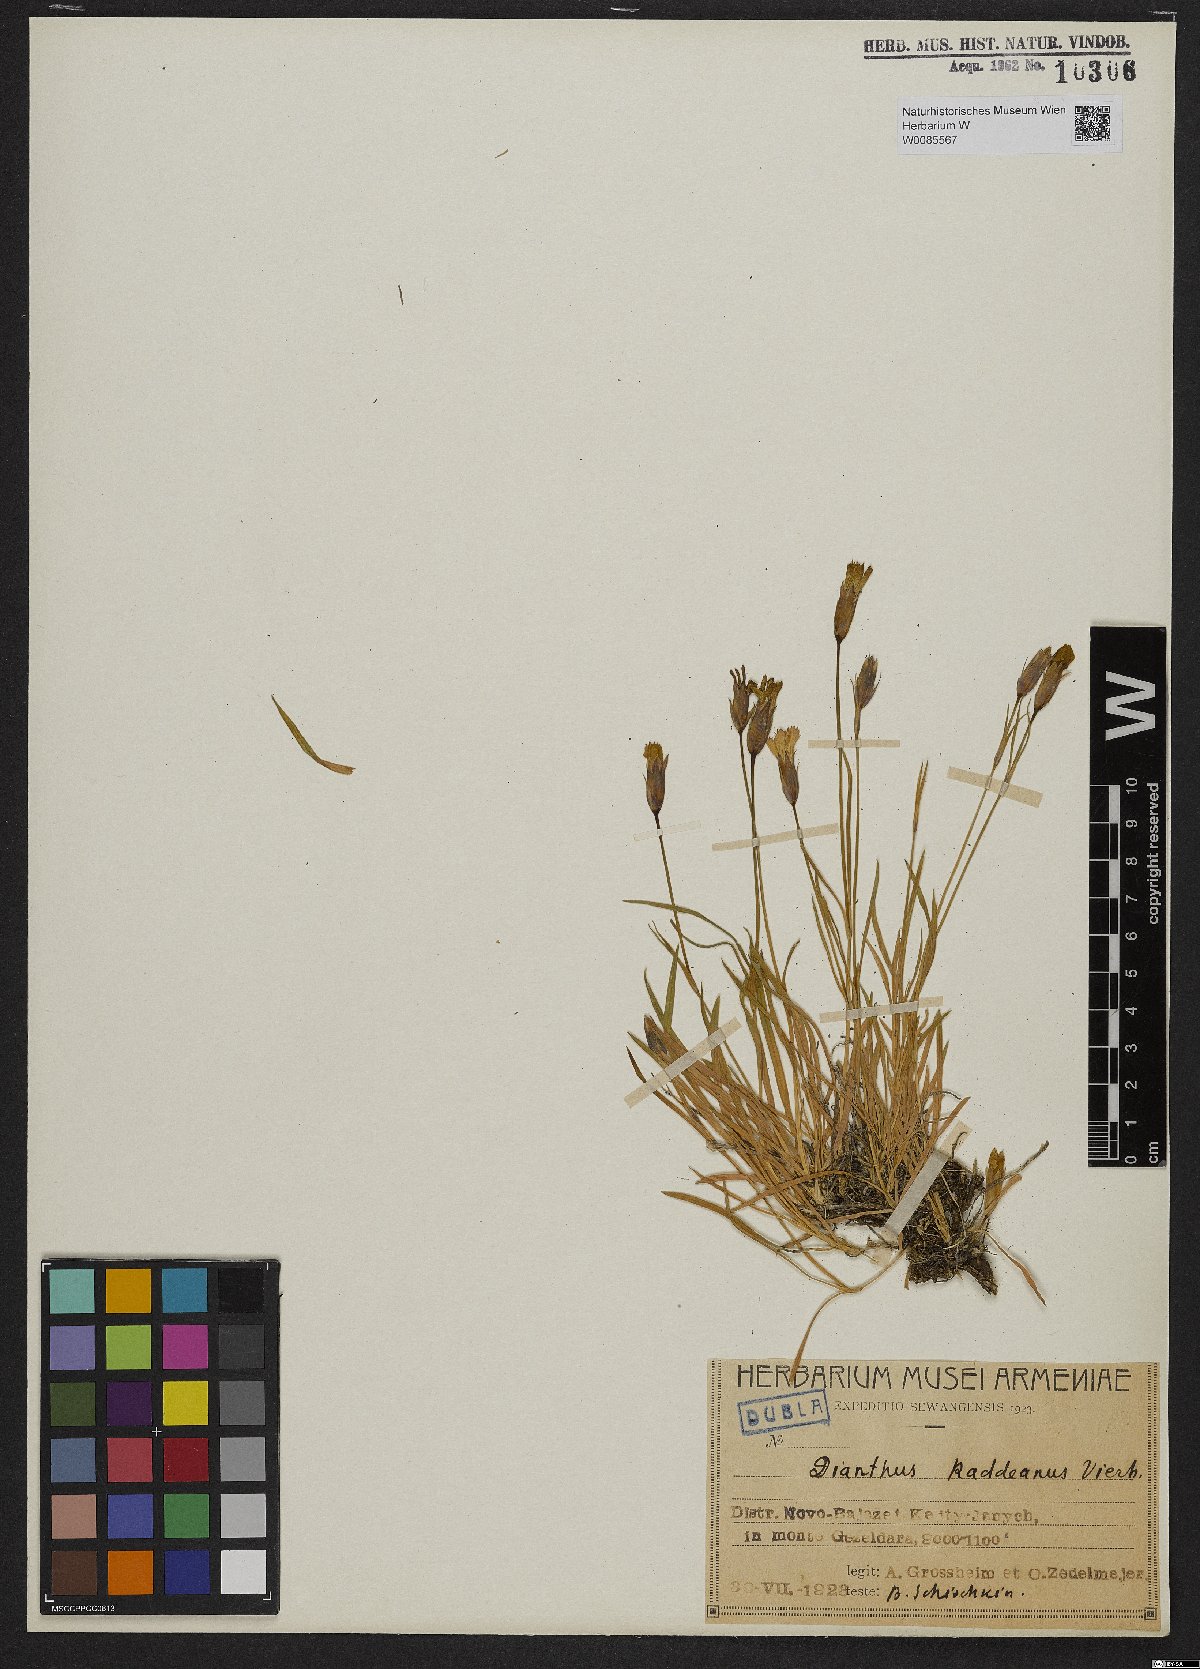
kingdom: Plantae
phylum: Tracheophyta
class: Magnoliopsida
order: Caryophyllales
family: Caryophyllaceae
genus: Dianthus
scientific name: Dianthus raddeanus
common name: Radde's pink
